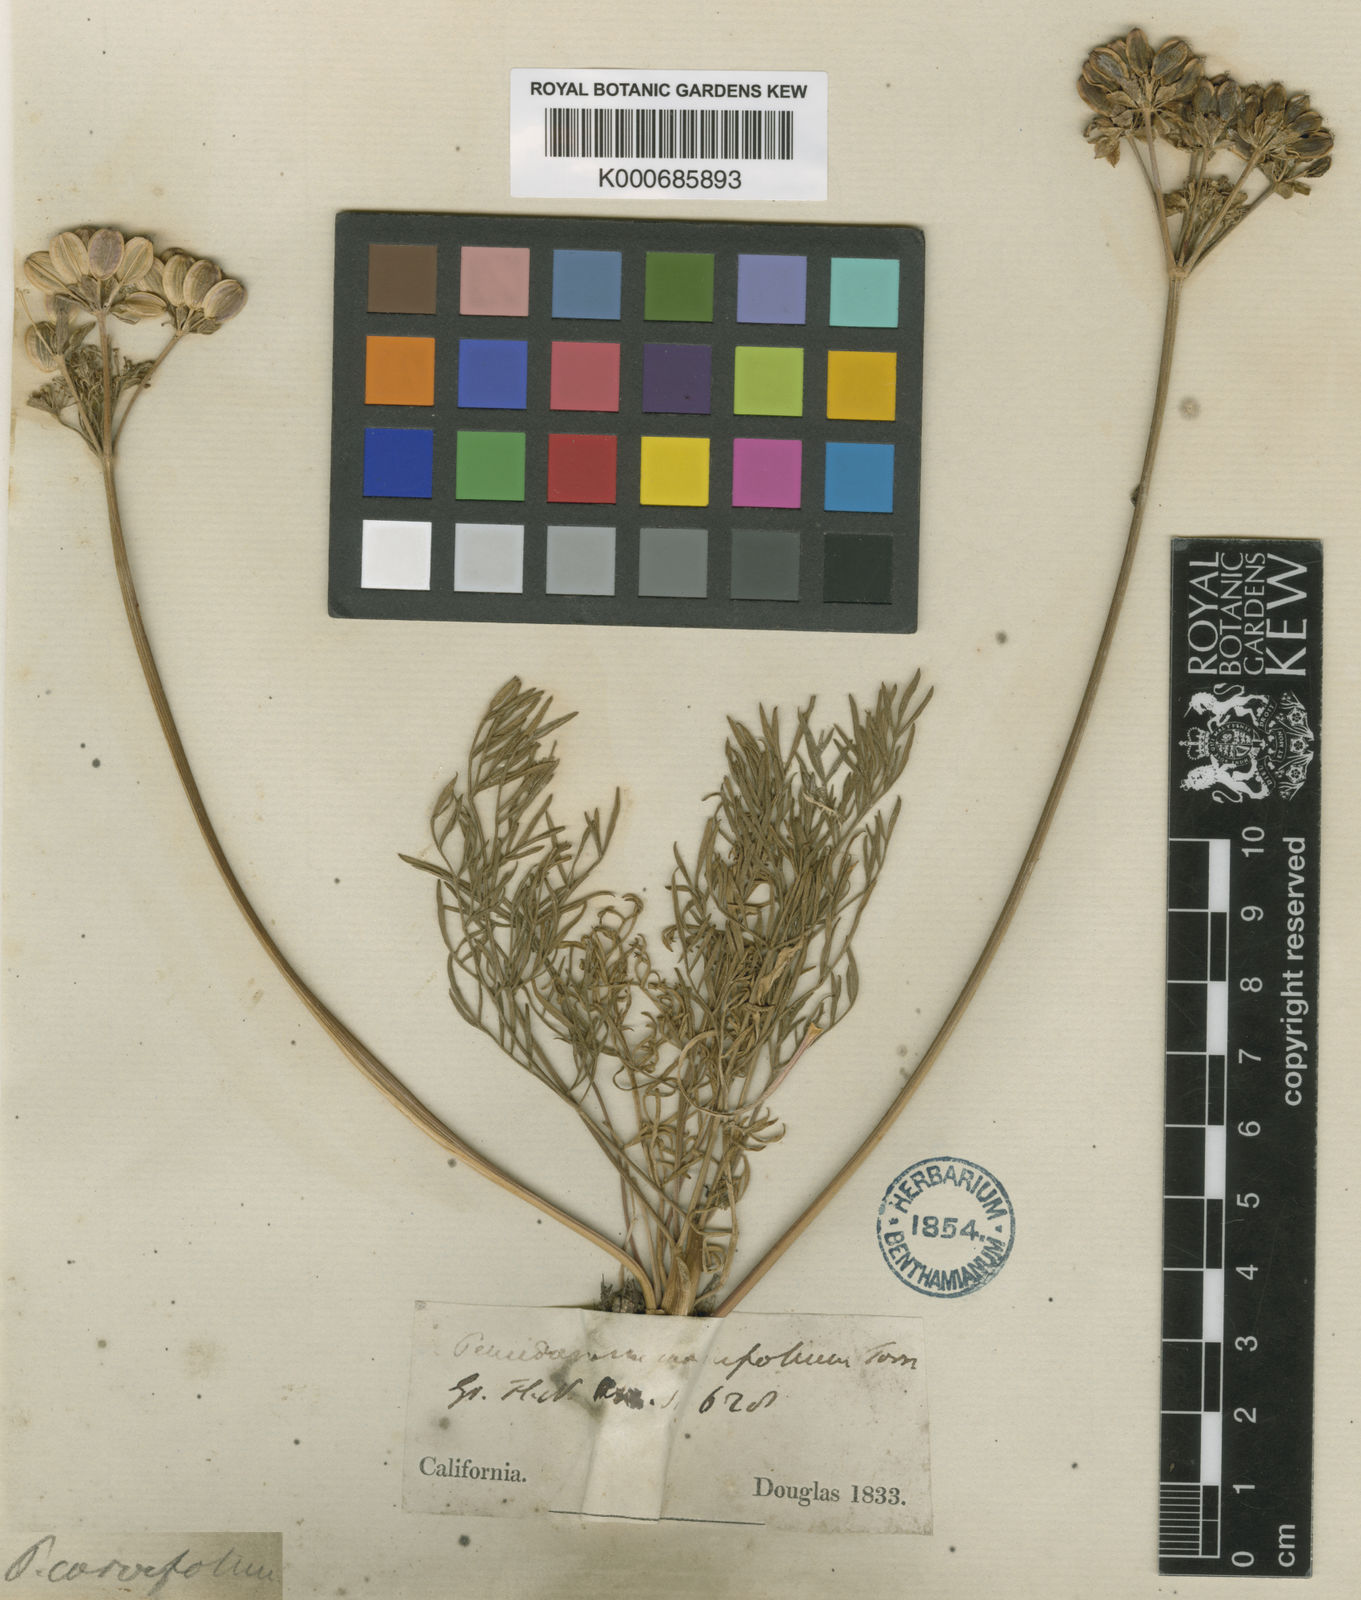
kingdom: Plantae
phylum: Tracheophyta
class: Magnoliopsida
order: Apiales
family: Apiaceae
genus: Lomatium
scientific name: Lomatium caruifolium
